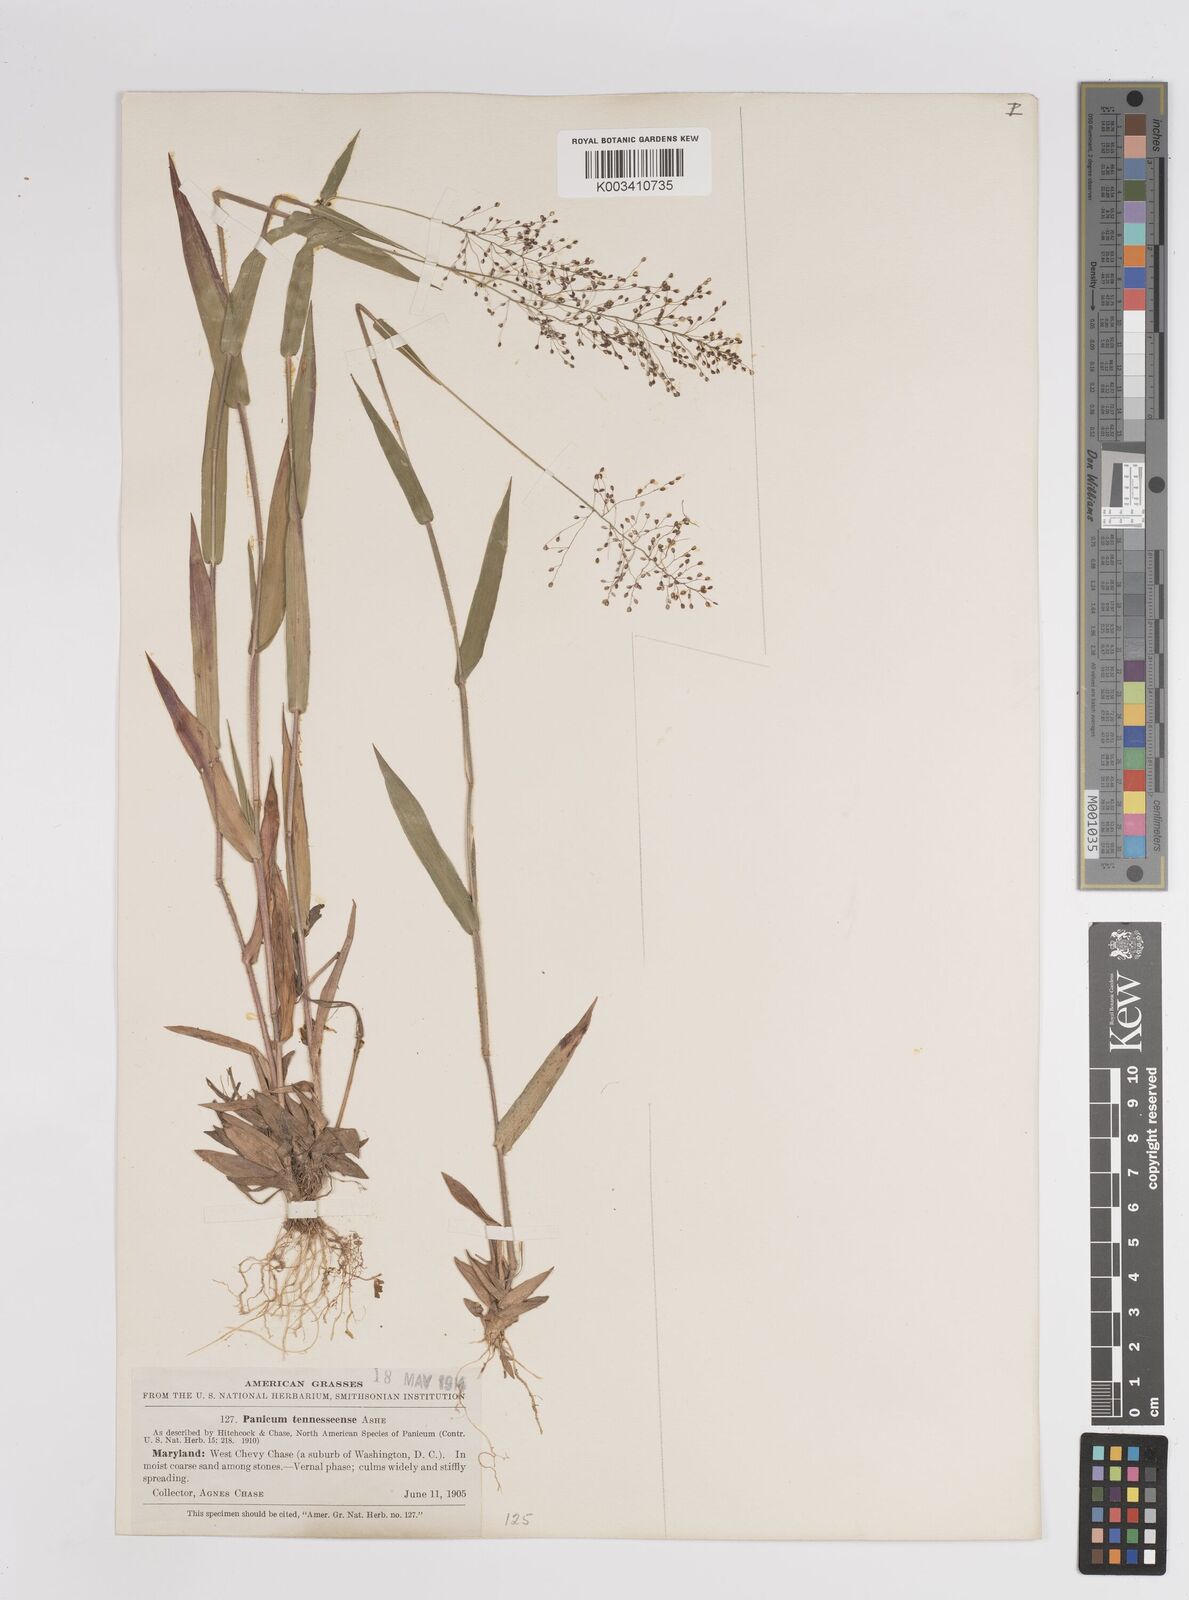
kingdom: Plantae
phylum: Tracheophyta
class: Liliopsida
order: Poales
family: Poaceae
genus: Dichanthelium
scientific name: Dichanthelium acuminatum
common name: Hairy panic grass
